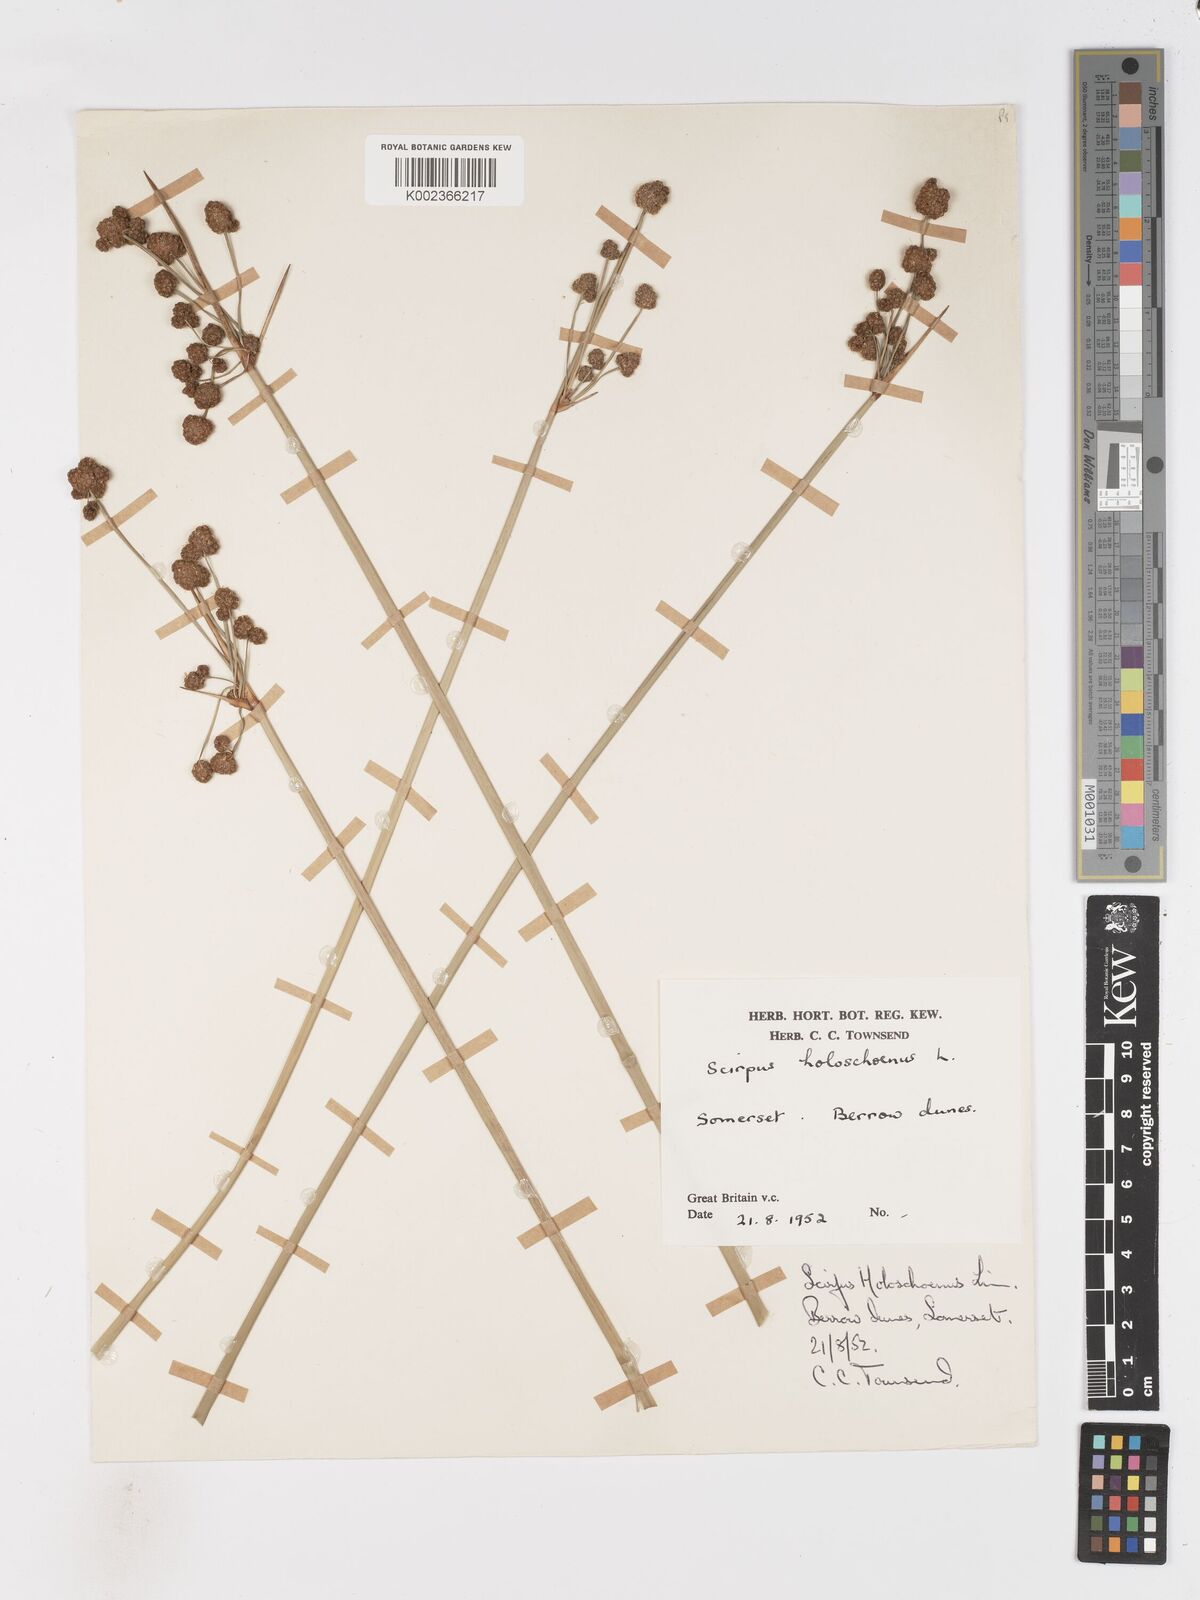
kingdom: Plantae
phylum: Tracheophyta
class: Liliopsida
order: Poales
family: Cyperaceae
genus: Scirpoides
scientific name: Scirpoides holoschoenus
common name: Round-headed club-rush
